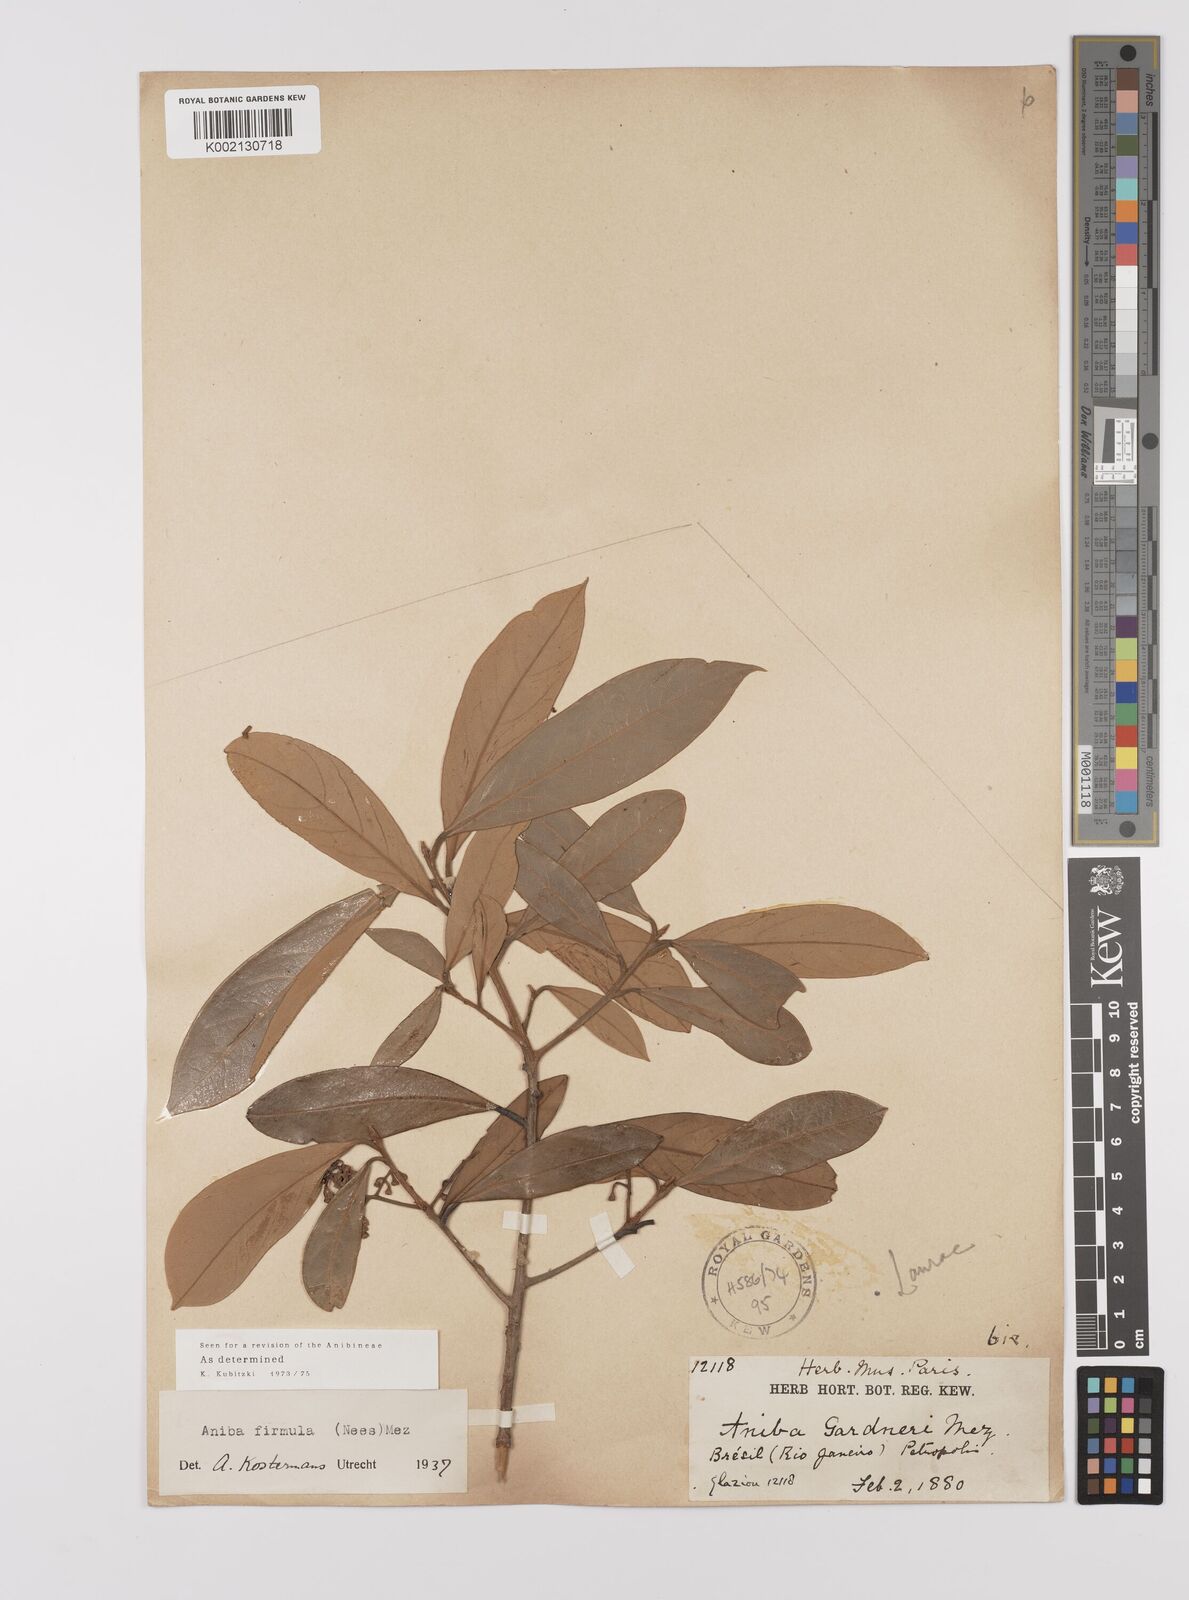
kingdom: Plantae
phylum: Tracheophyta
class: Magnoliopsida
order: Laurales
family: Lauraceae
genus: Aniba
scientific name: Aniba firmula
